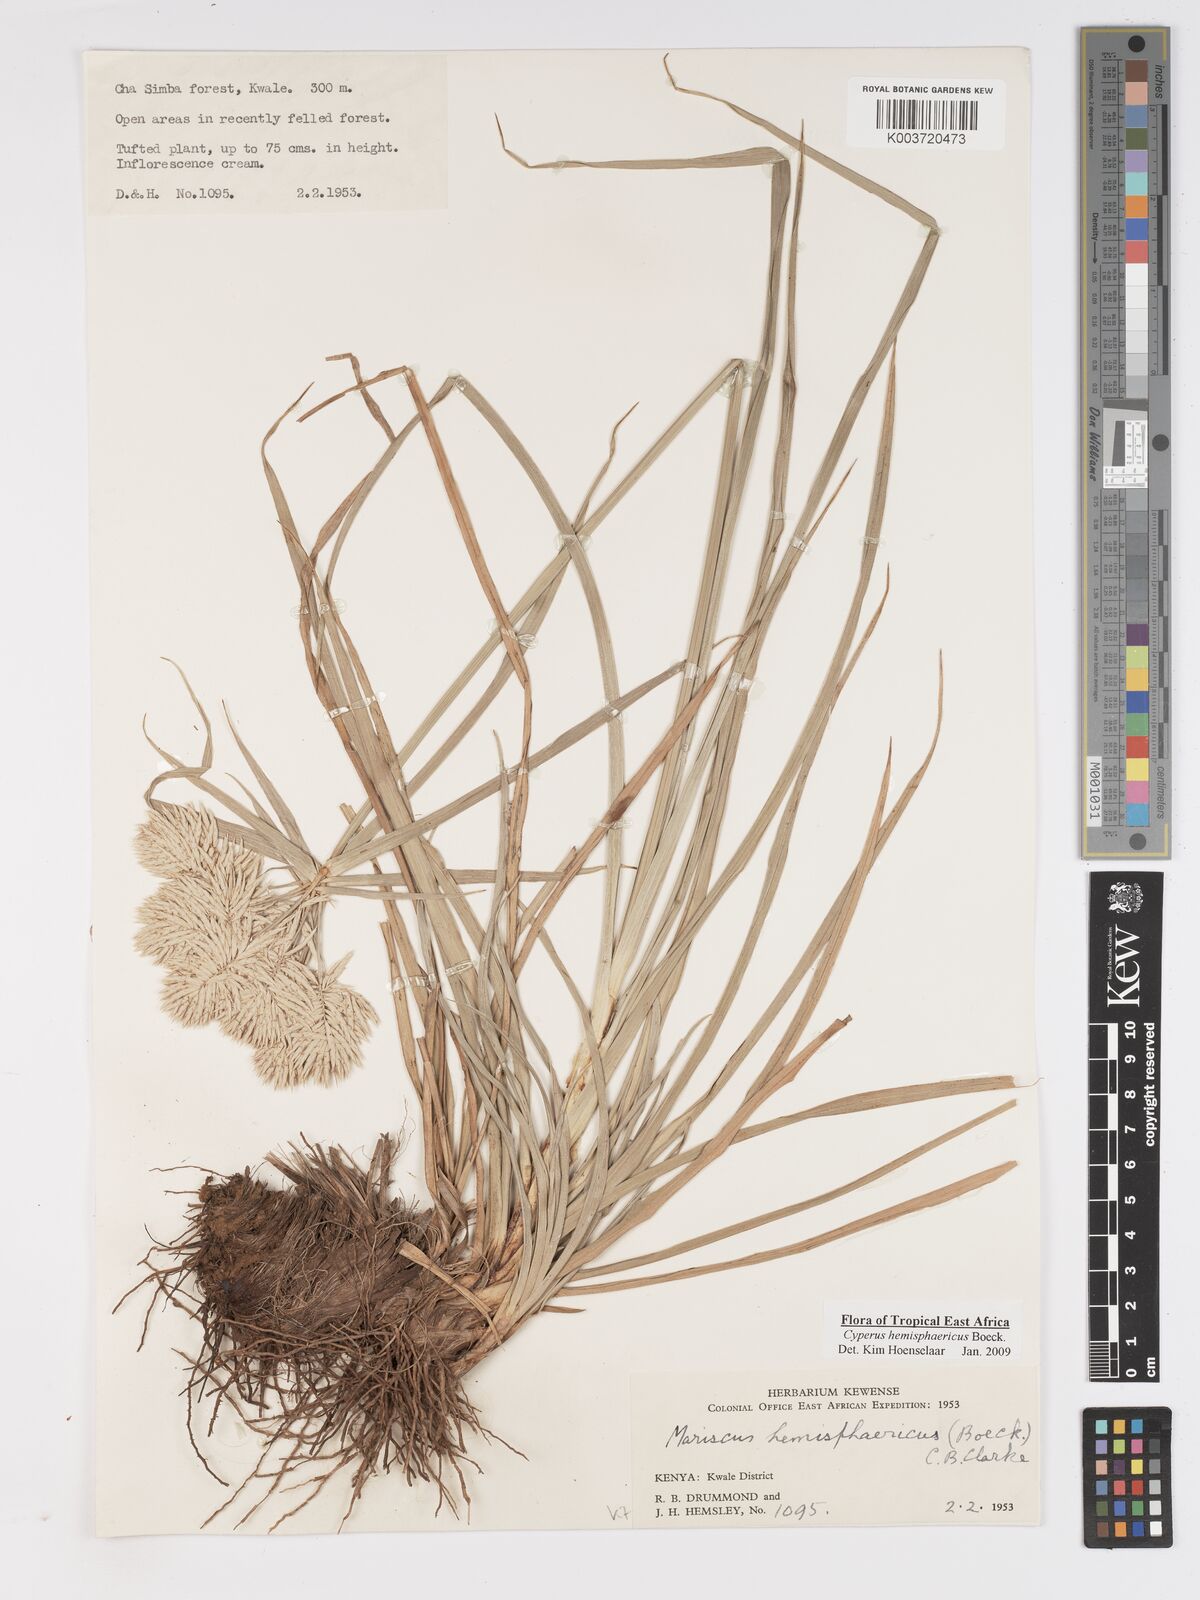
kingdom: Plantae
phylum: Tracheophyta
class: Liliopsida
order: Poales
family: Cyperaceae
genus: Cyperus
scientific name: Cyperus hemisphaericus
